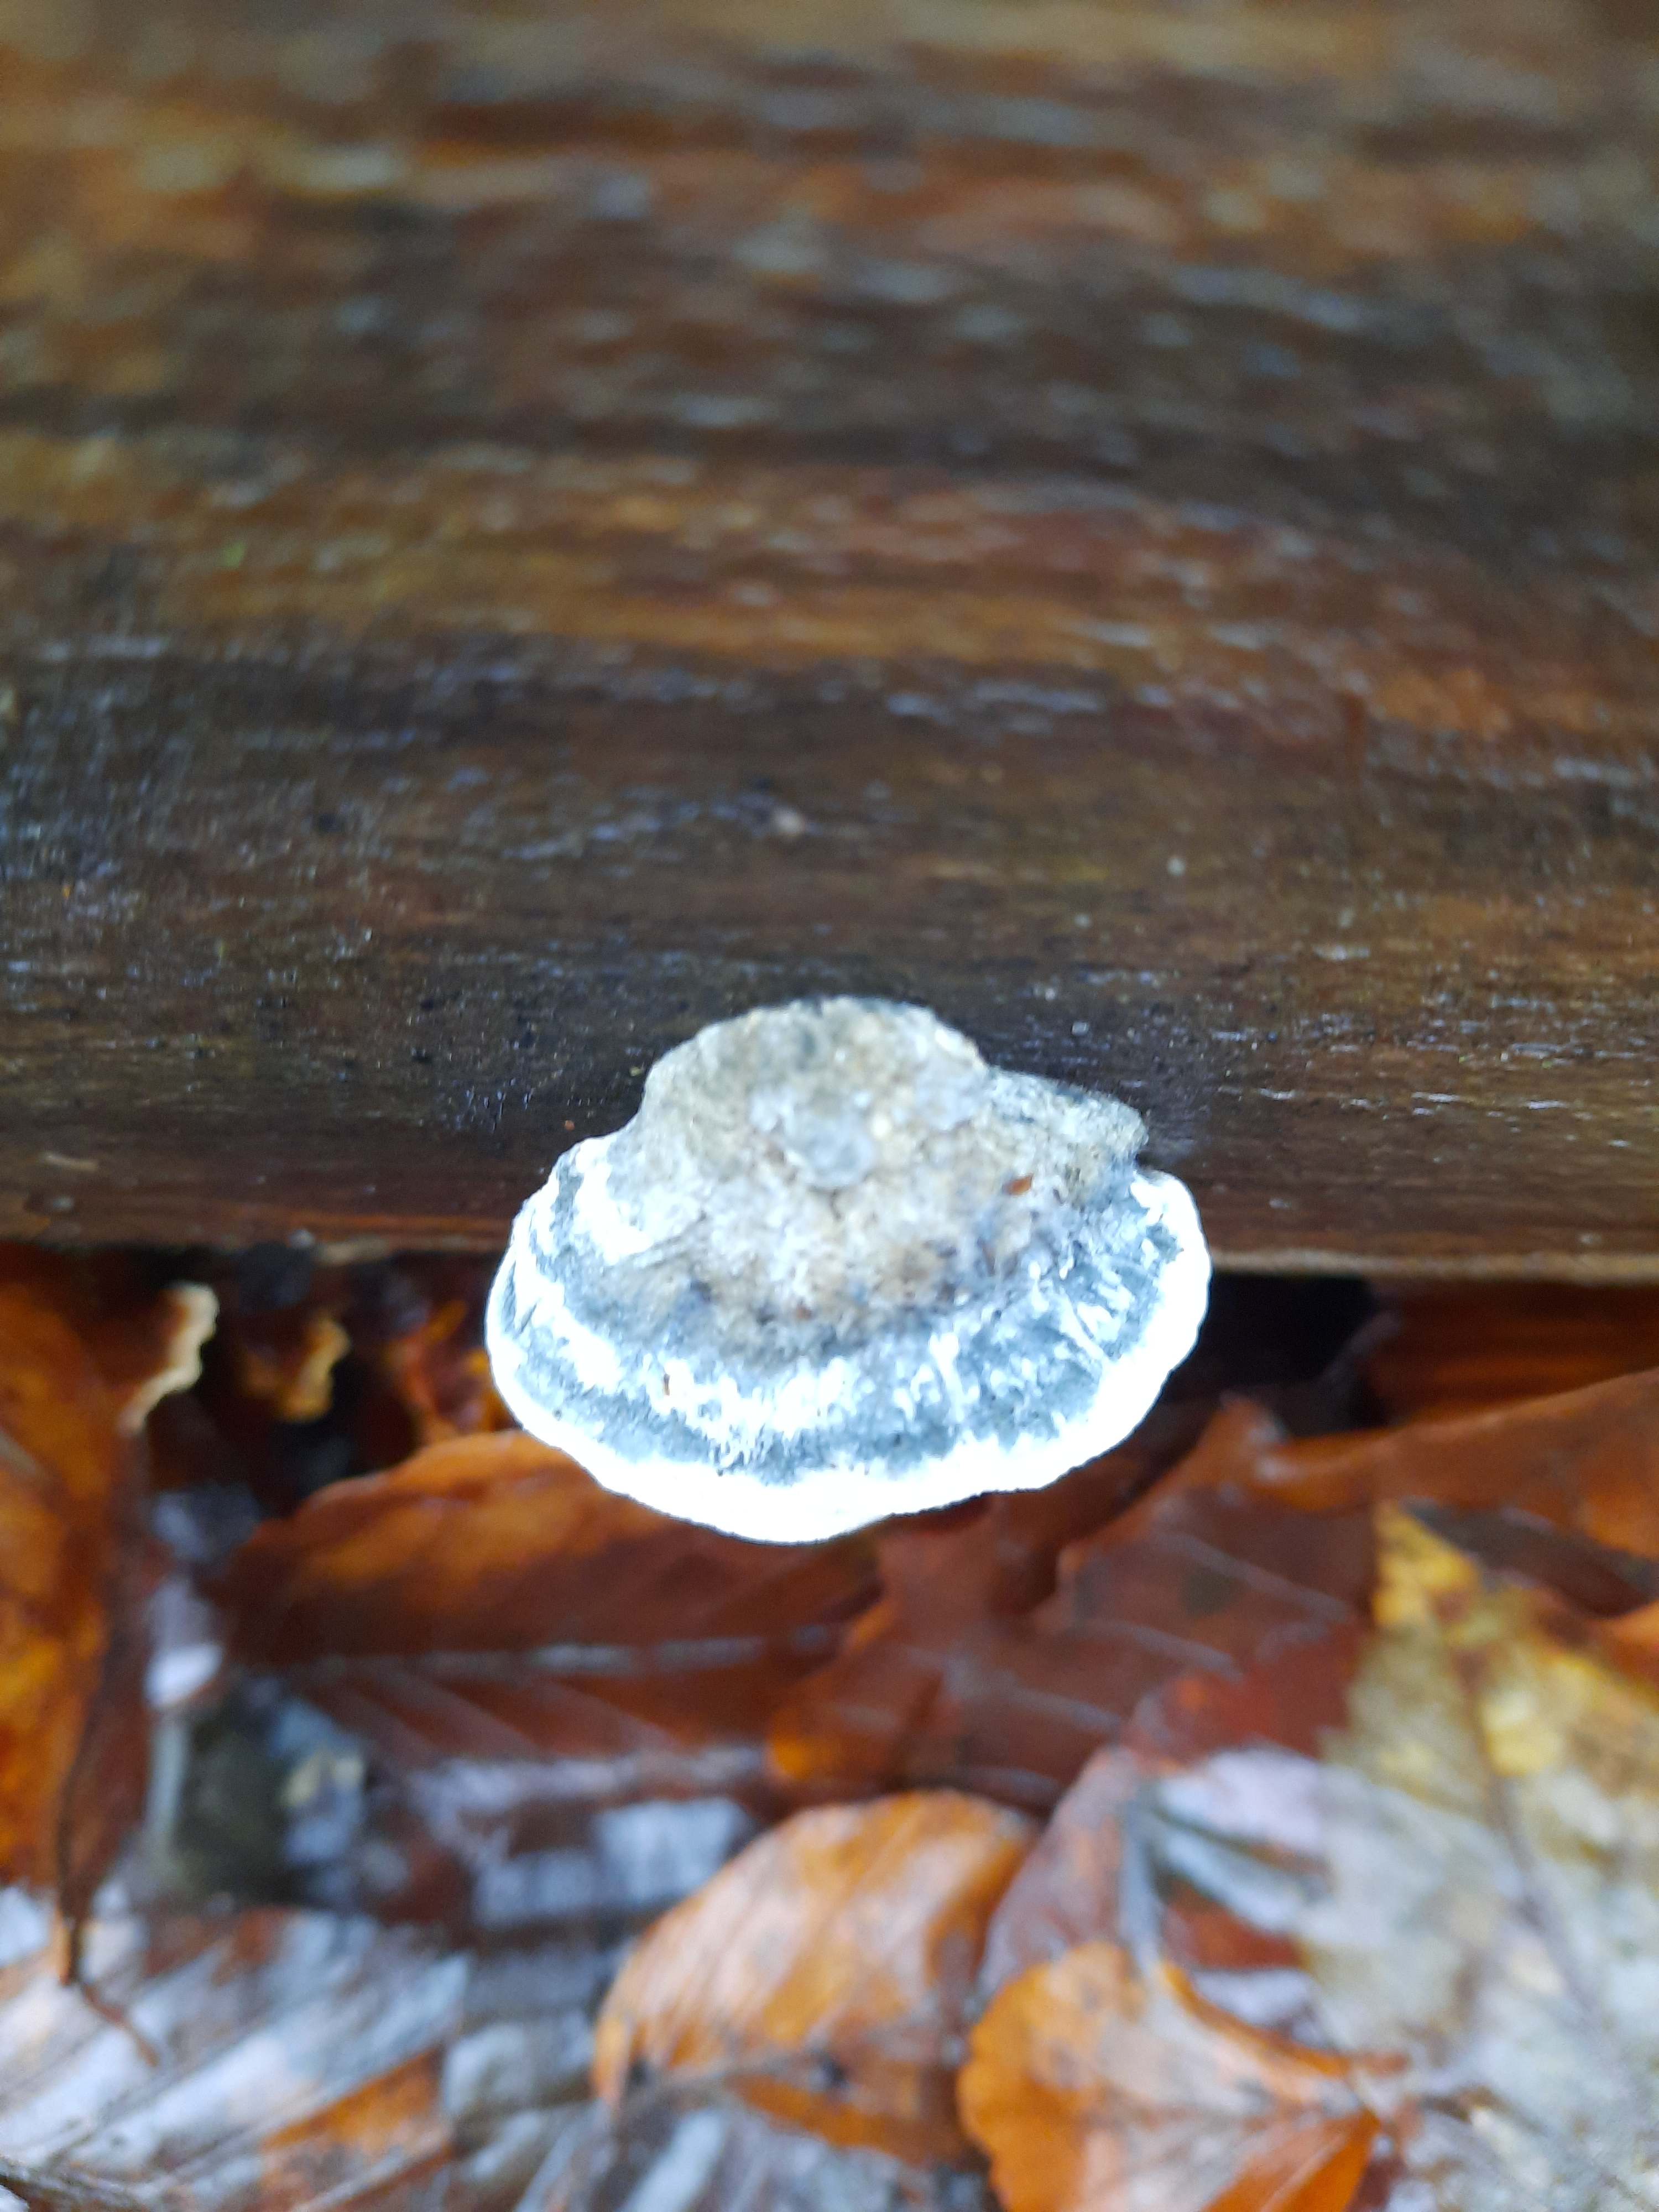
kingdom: Fungi
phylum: Basidiomycota
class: Agaricomycetes
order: Polyporales
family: Polyporaceae
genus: Cyanosporus
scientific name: Cyanosporus alni
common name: blegblå kødporesvamp
